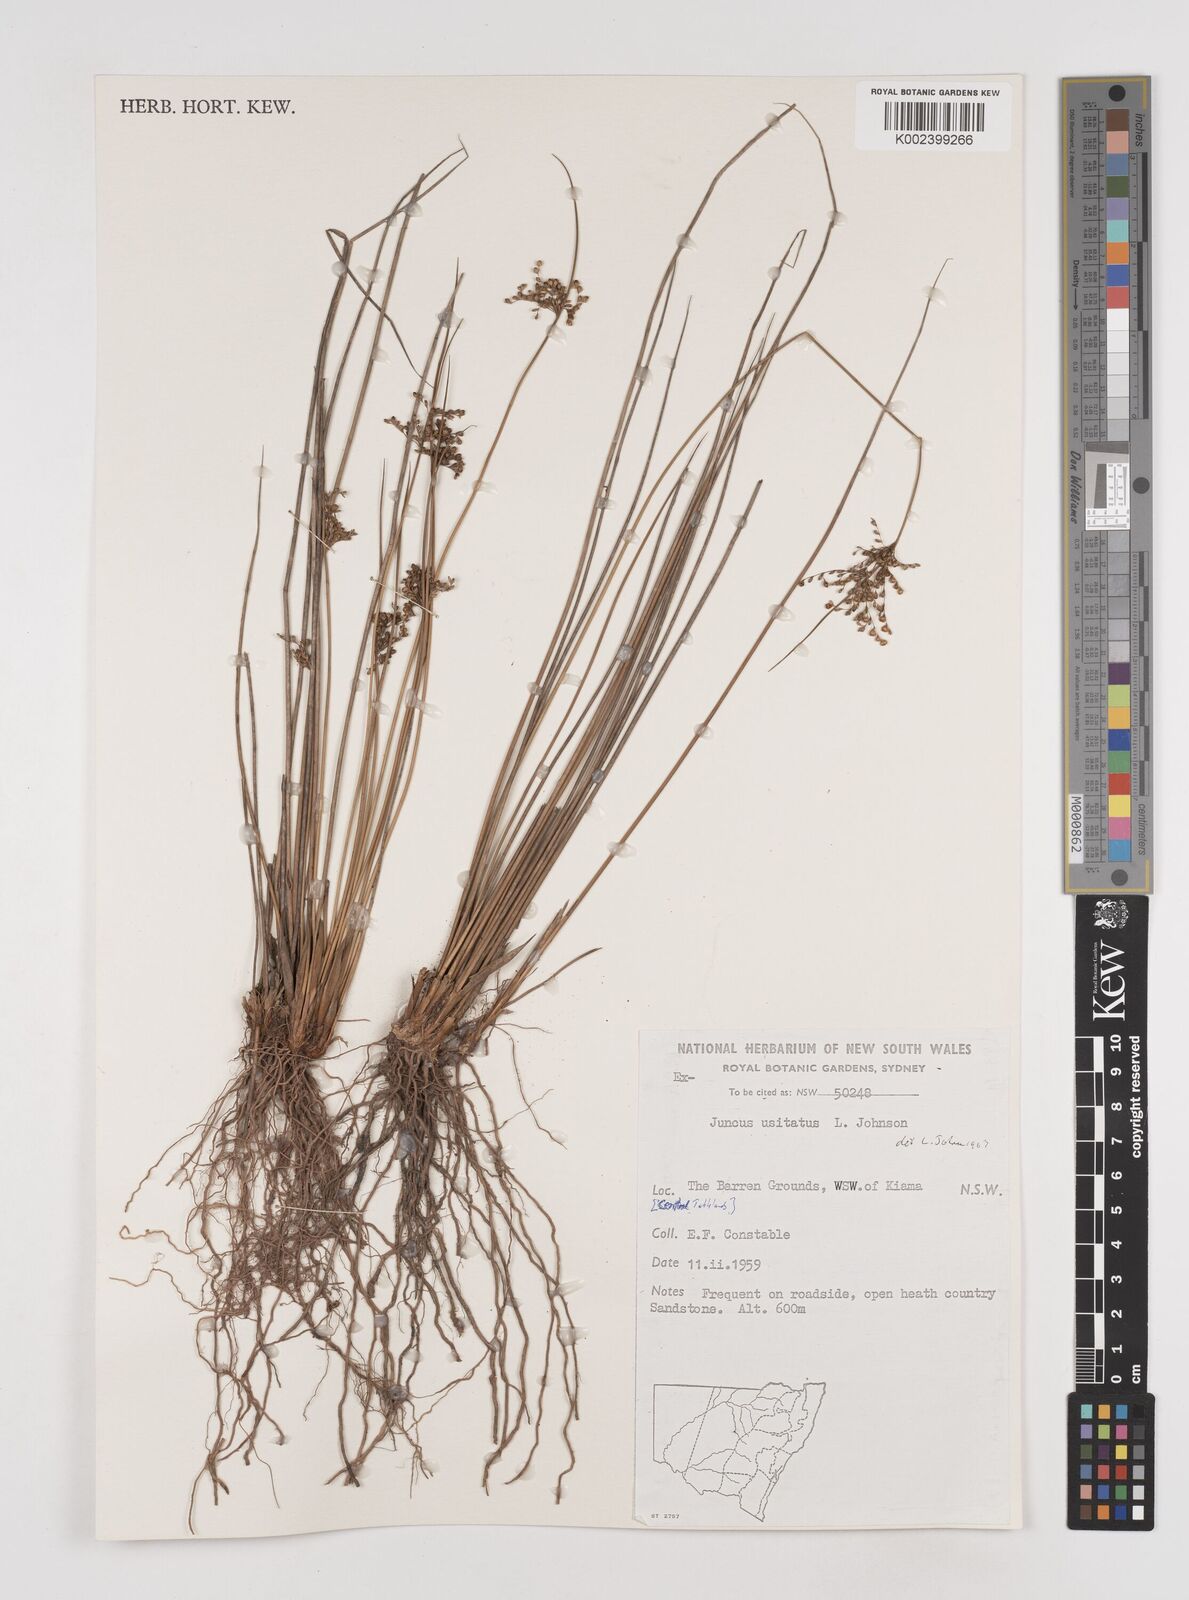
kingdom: Plantae
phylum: Tracheophyta
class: Liliopsida
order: Poales
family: Juncaceae
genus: Juncus
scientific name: Juncus usitatus
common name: Rush
